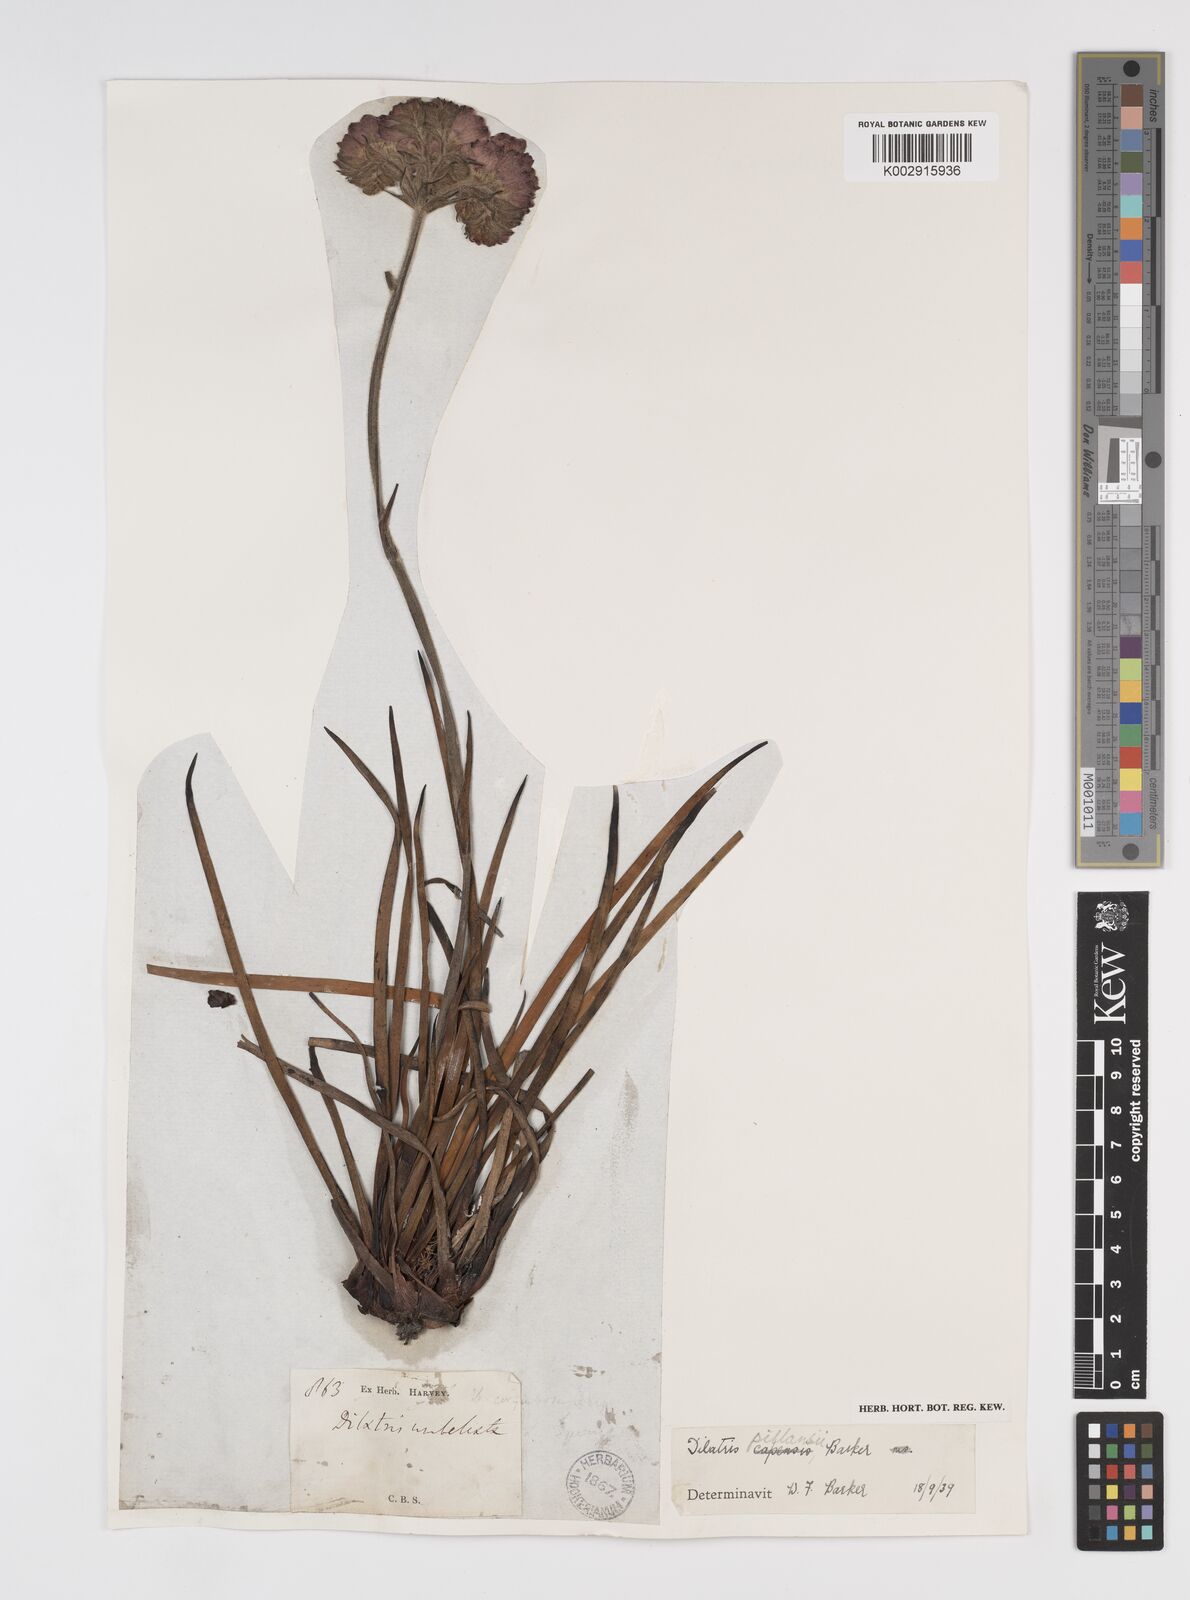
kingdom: Plantae
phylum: Tracheophyta
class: Liliopsida
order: Commelinales
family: Haemodoraceae
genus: Dilatris
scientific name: Dilatris pillansii
